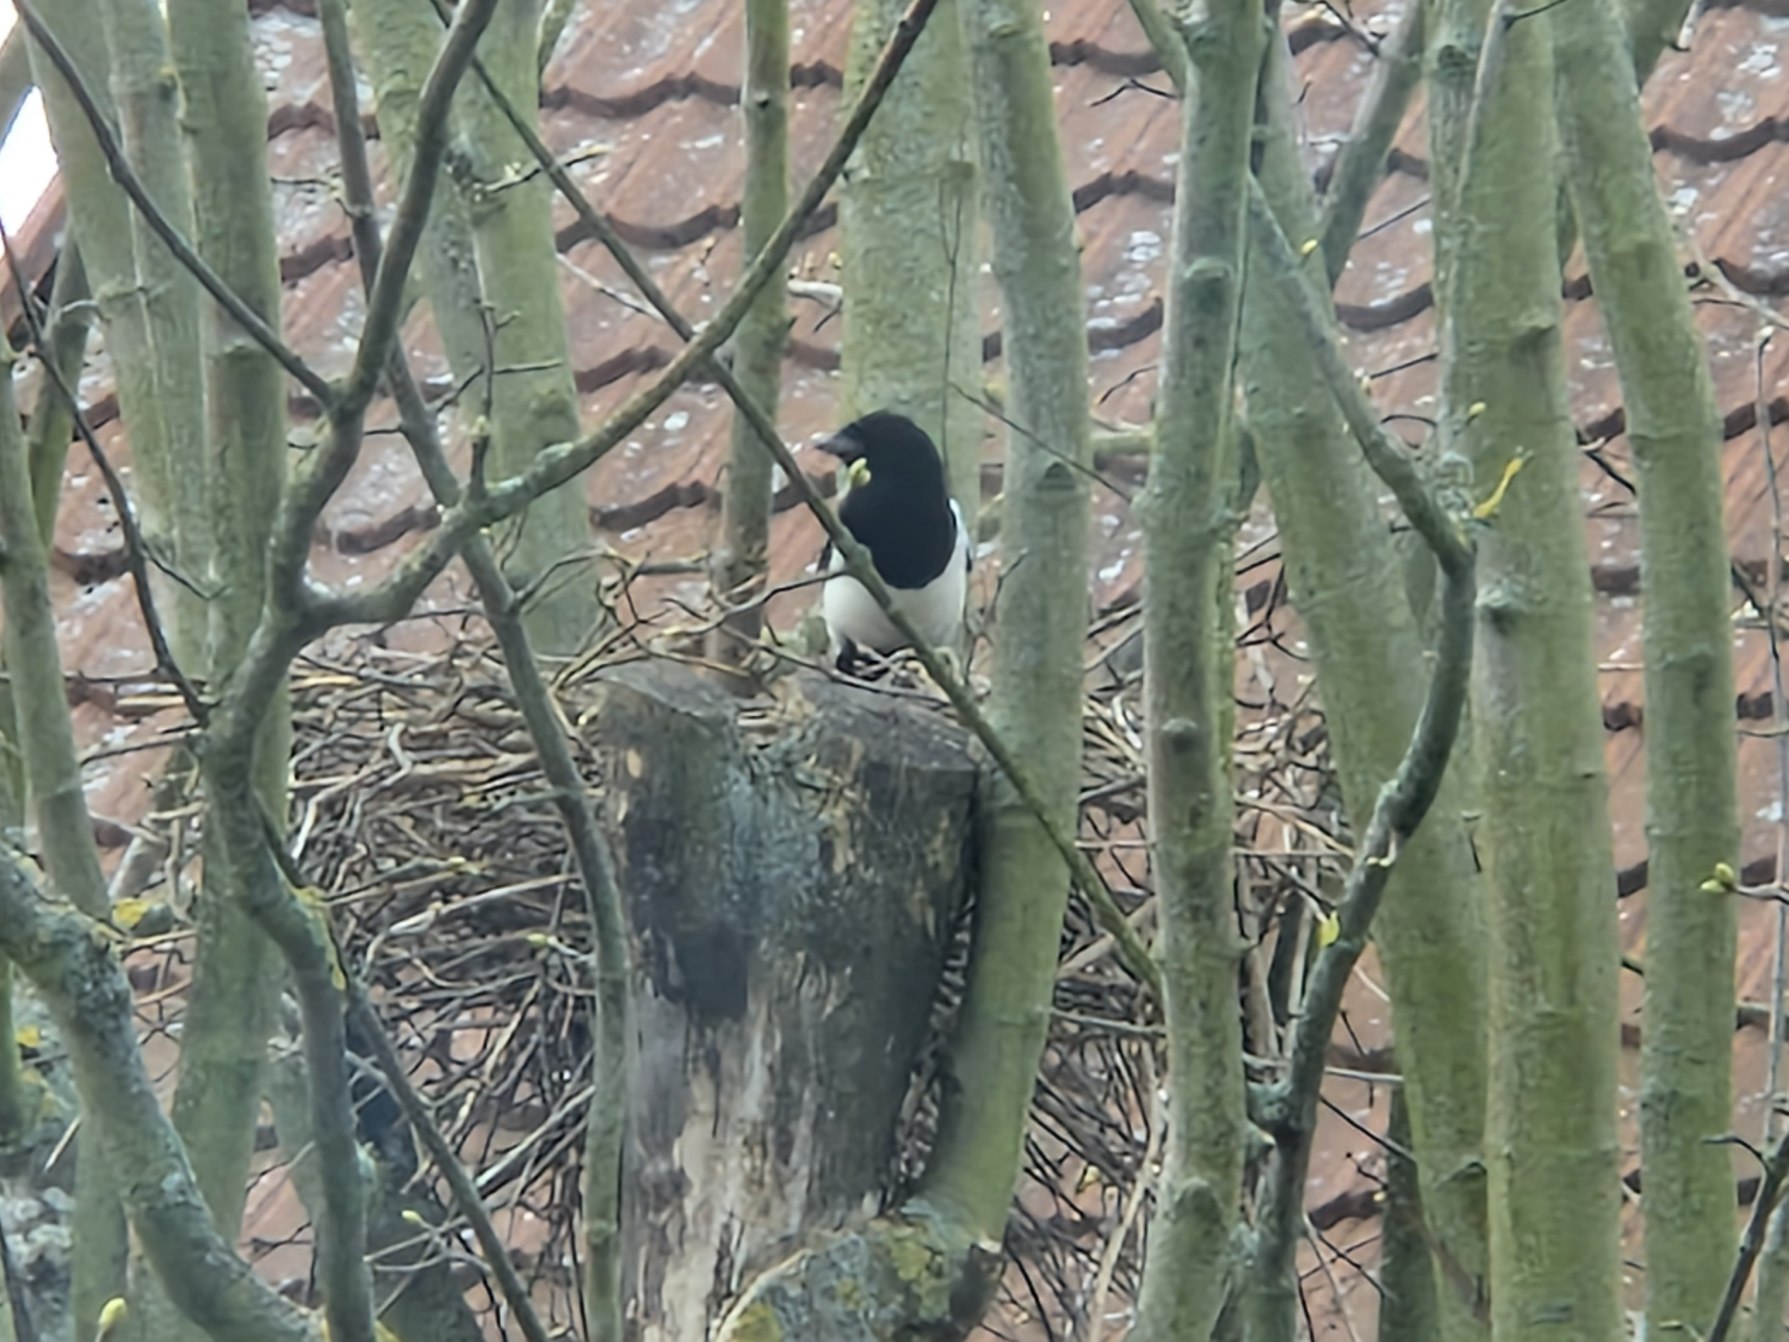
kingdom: Animalia
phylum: Chordata
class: Aves
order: Passeriformes
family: Corvidae
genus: Pica
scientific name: Pica pica
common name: Husskade
